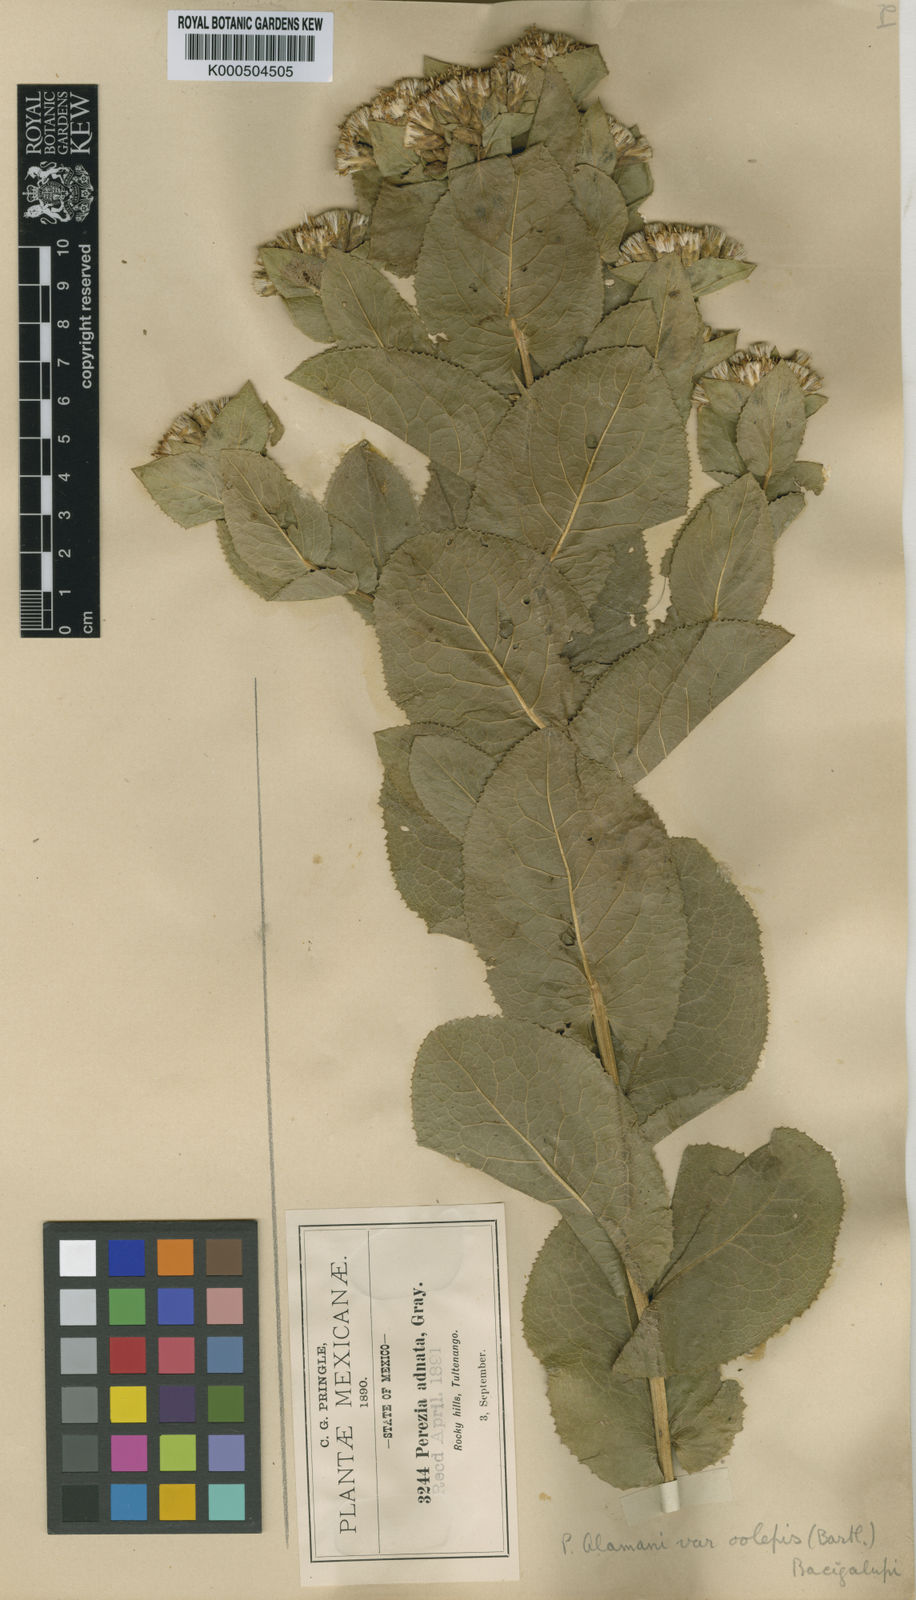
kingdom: Plantae
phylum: Tracheophyta
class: Magnoliopsida
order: Asterales
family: Asteraceae
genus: Acourtia
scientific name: Acourtia humboldtii
